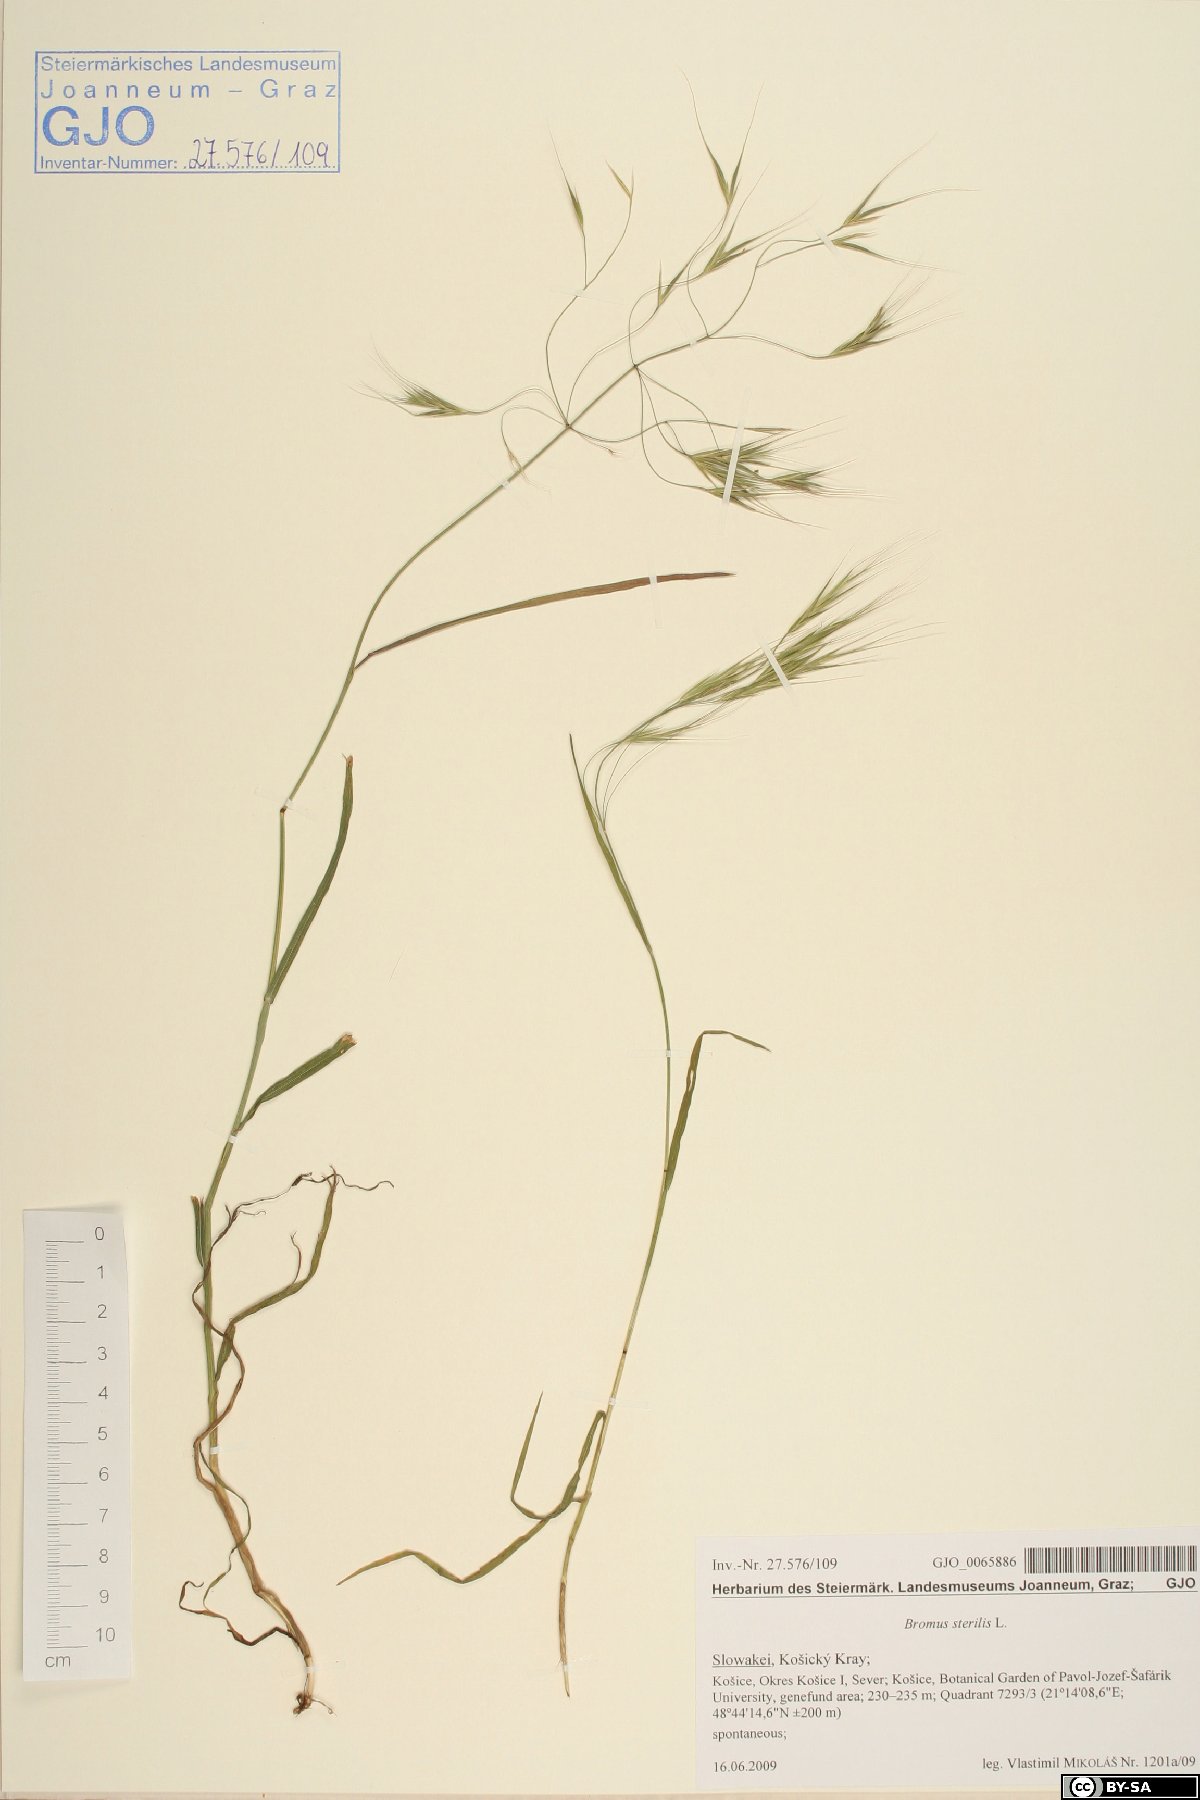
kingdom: Plantae
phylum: Tracheophyta
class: Liliopsida
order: Poales
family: Poaceae
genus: Bromus
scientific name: Bromus sterilis
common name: Poverty brome
